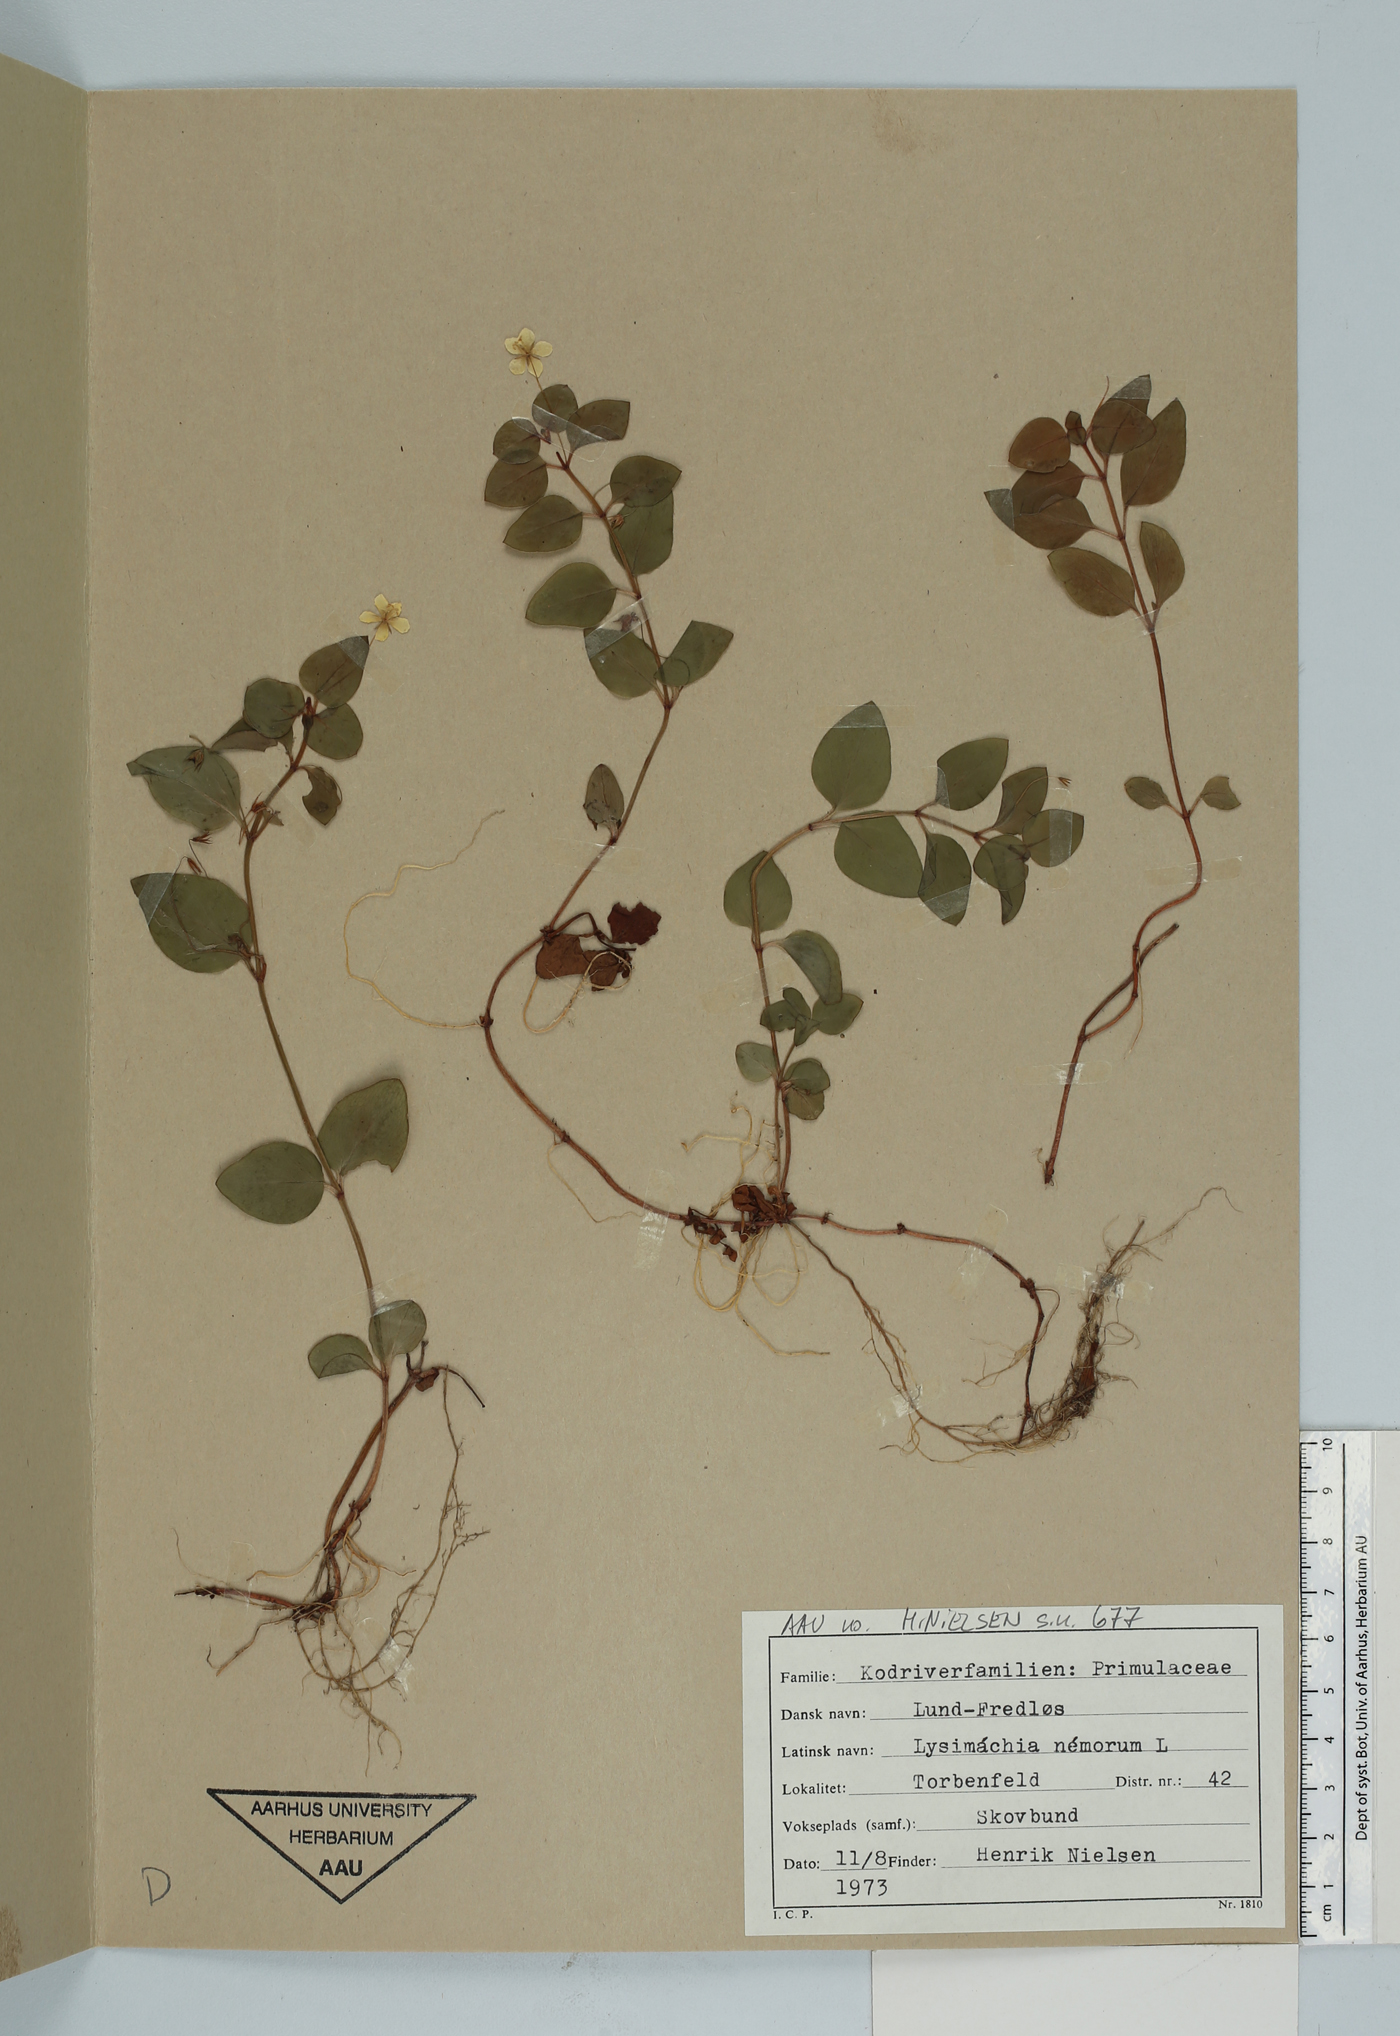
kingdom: Plantae
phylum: Tracheophyta
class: Magnoliopsida
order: Ericales
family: Primulaceae
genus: Lysimachia
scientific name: Lysimachia nemorum
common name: Yellow pimpernel
